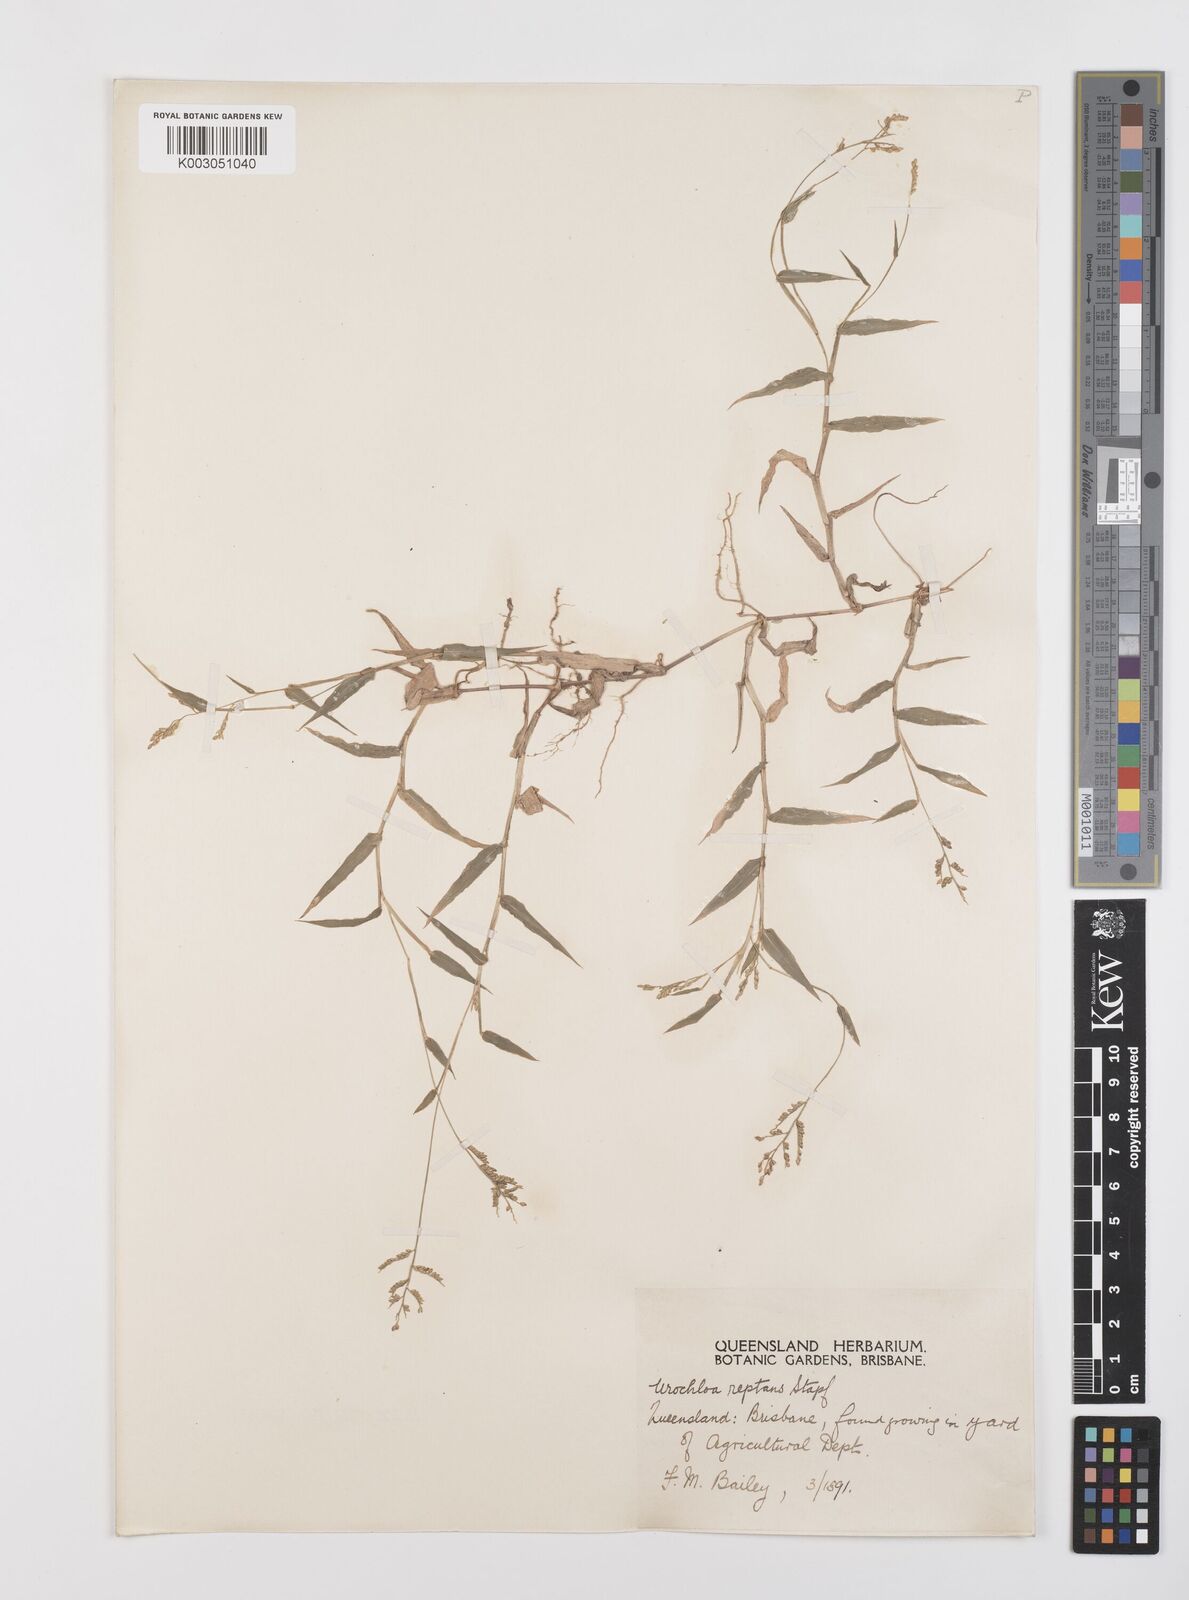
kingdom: Plantae
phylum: Tracheophyta
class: Liliopsida
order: Poales
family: Poaceae
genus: Urochloa
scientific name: Urochloa reptans
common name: Sprawling signalgrass
